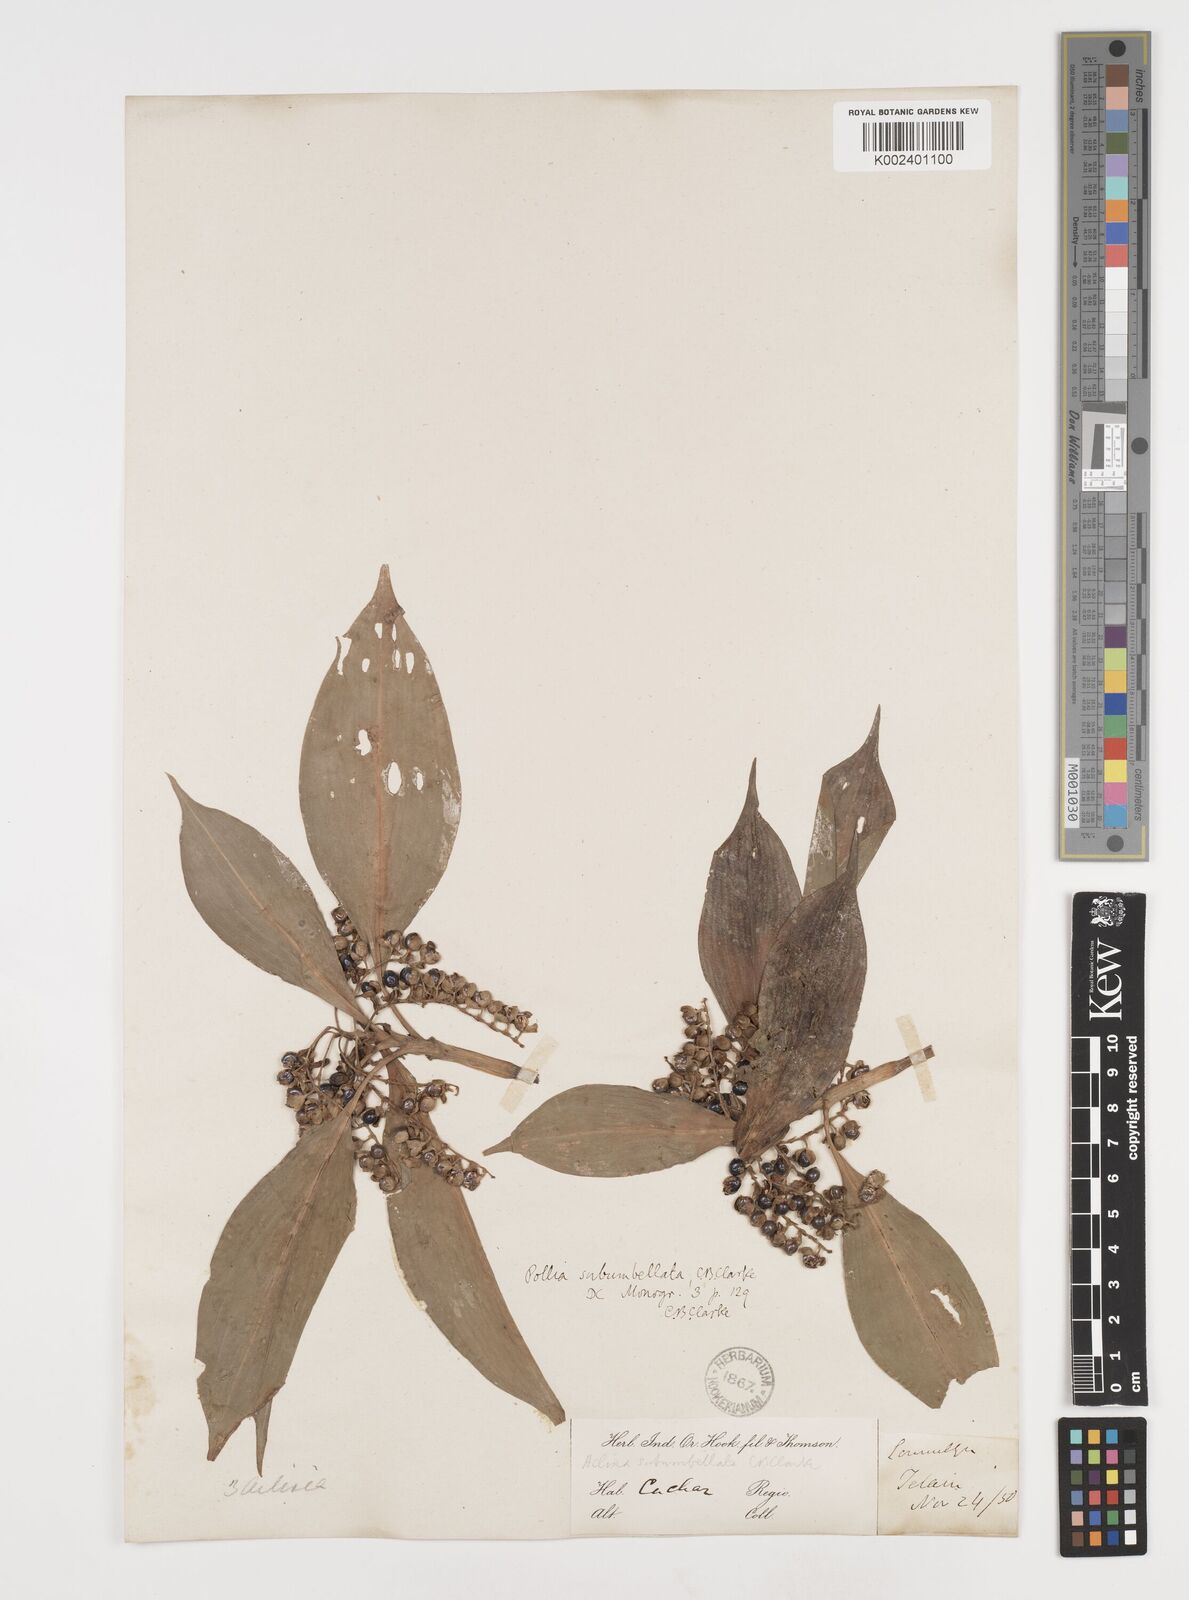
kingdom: Plantae
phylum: Tracheophyta
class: Liliopsida
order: Commelinales
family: Commelinaceae
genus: Pollia
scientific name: Pollia subumbellata
